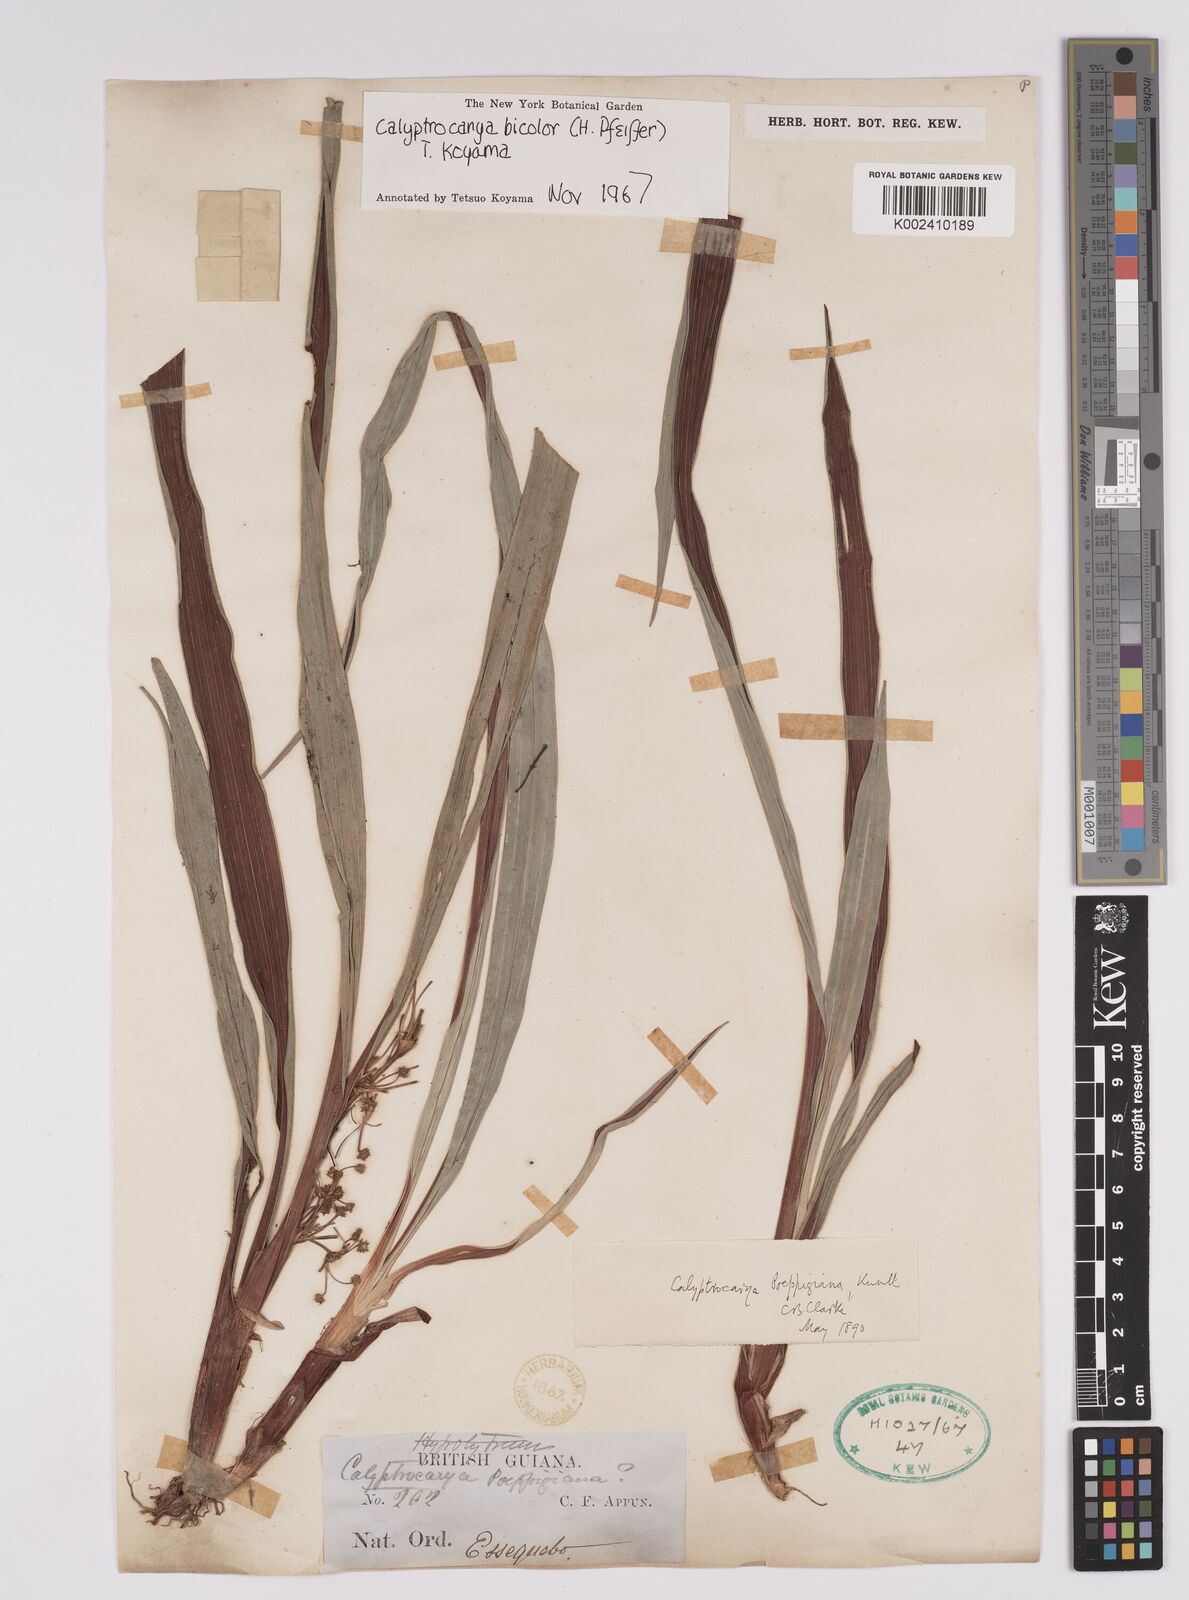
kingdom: Plantae
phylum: Tracheophyta
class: Liliopsida
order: Poales
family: Cyperaceae
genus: Calyptrocarya
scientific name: Calyptrocarya bicolor
